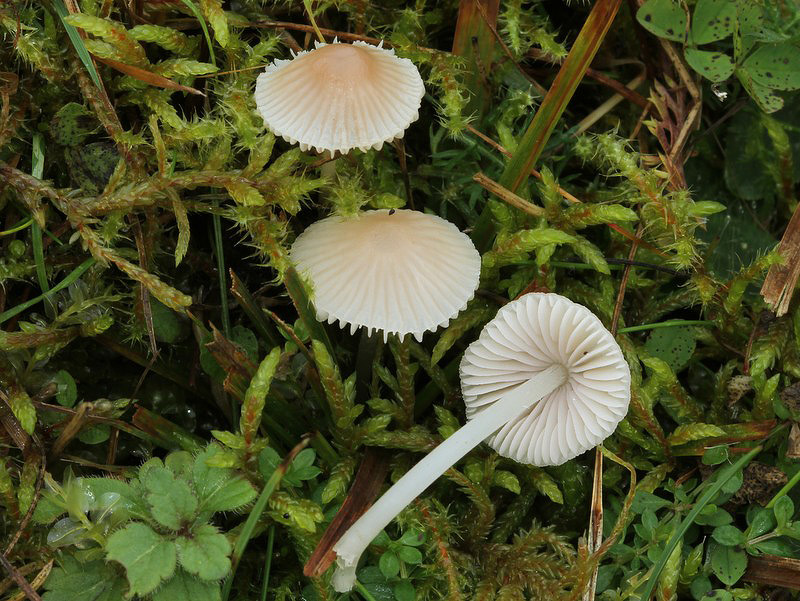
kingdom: Fungi
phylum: Basidiomycota
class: Agaricomycetes
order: Agaricales
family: Mycenaceae
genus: Atheniella
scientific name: Atheniella flavoalba
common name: gulhvid huesvamp
